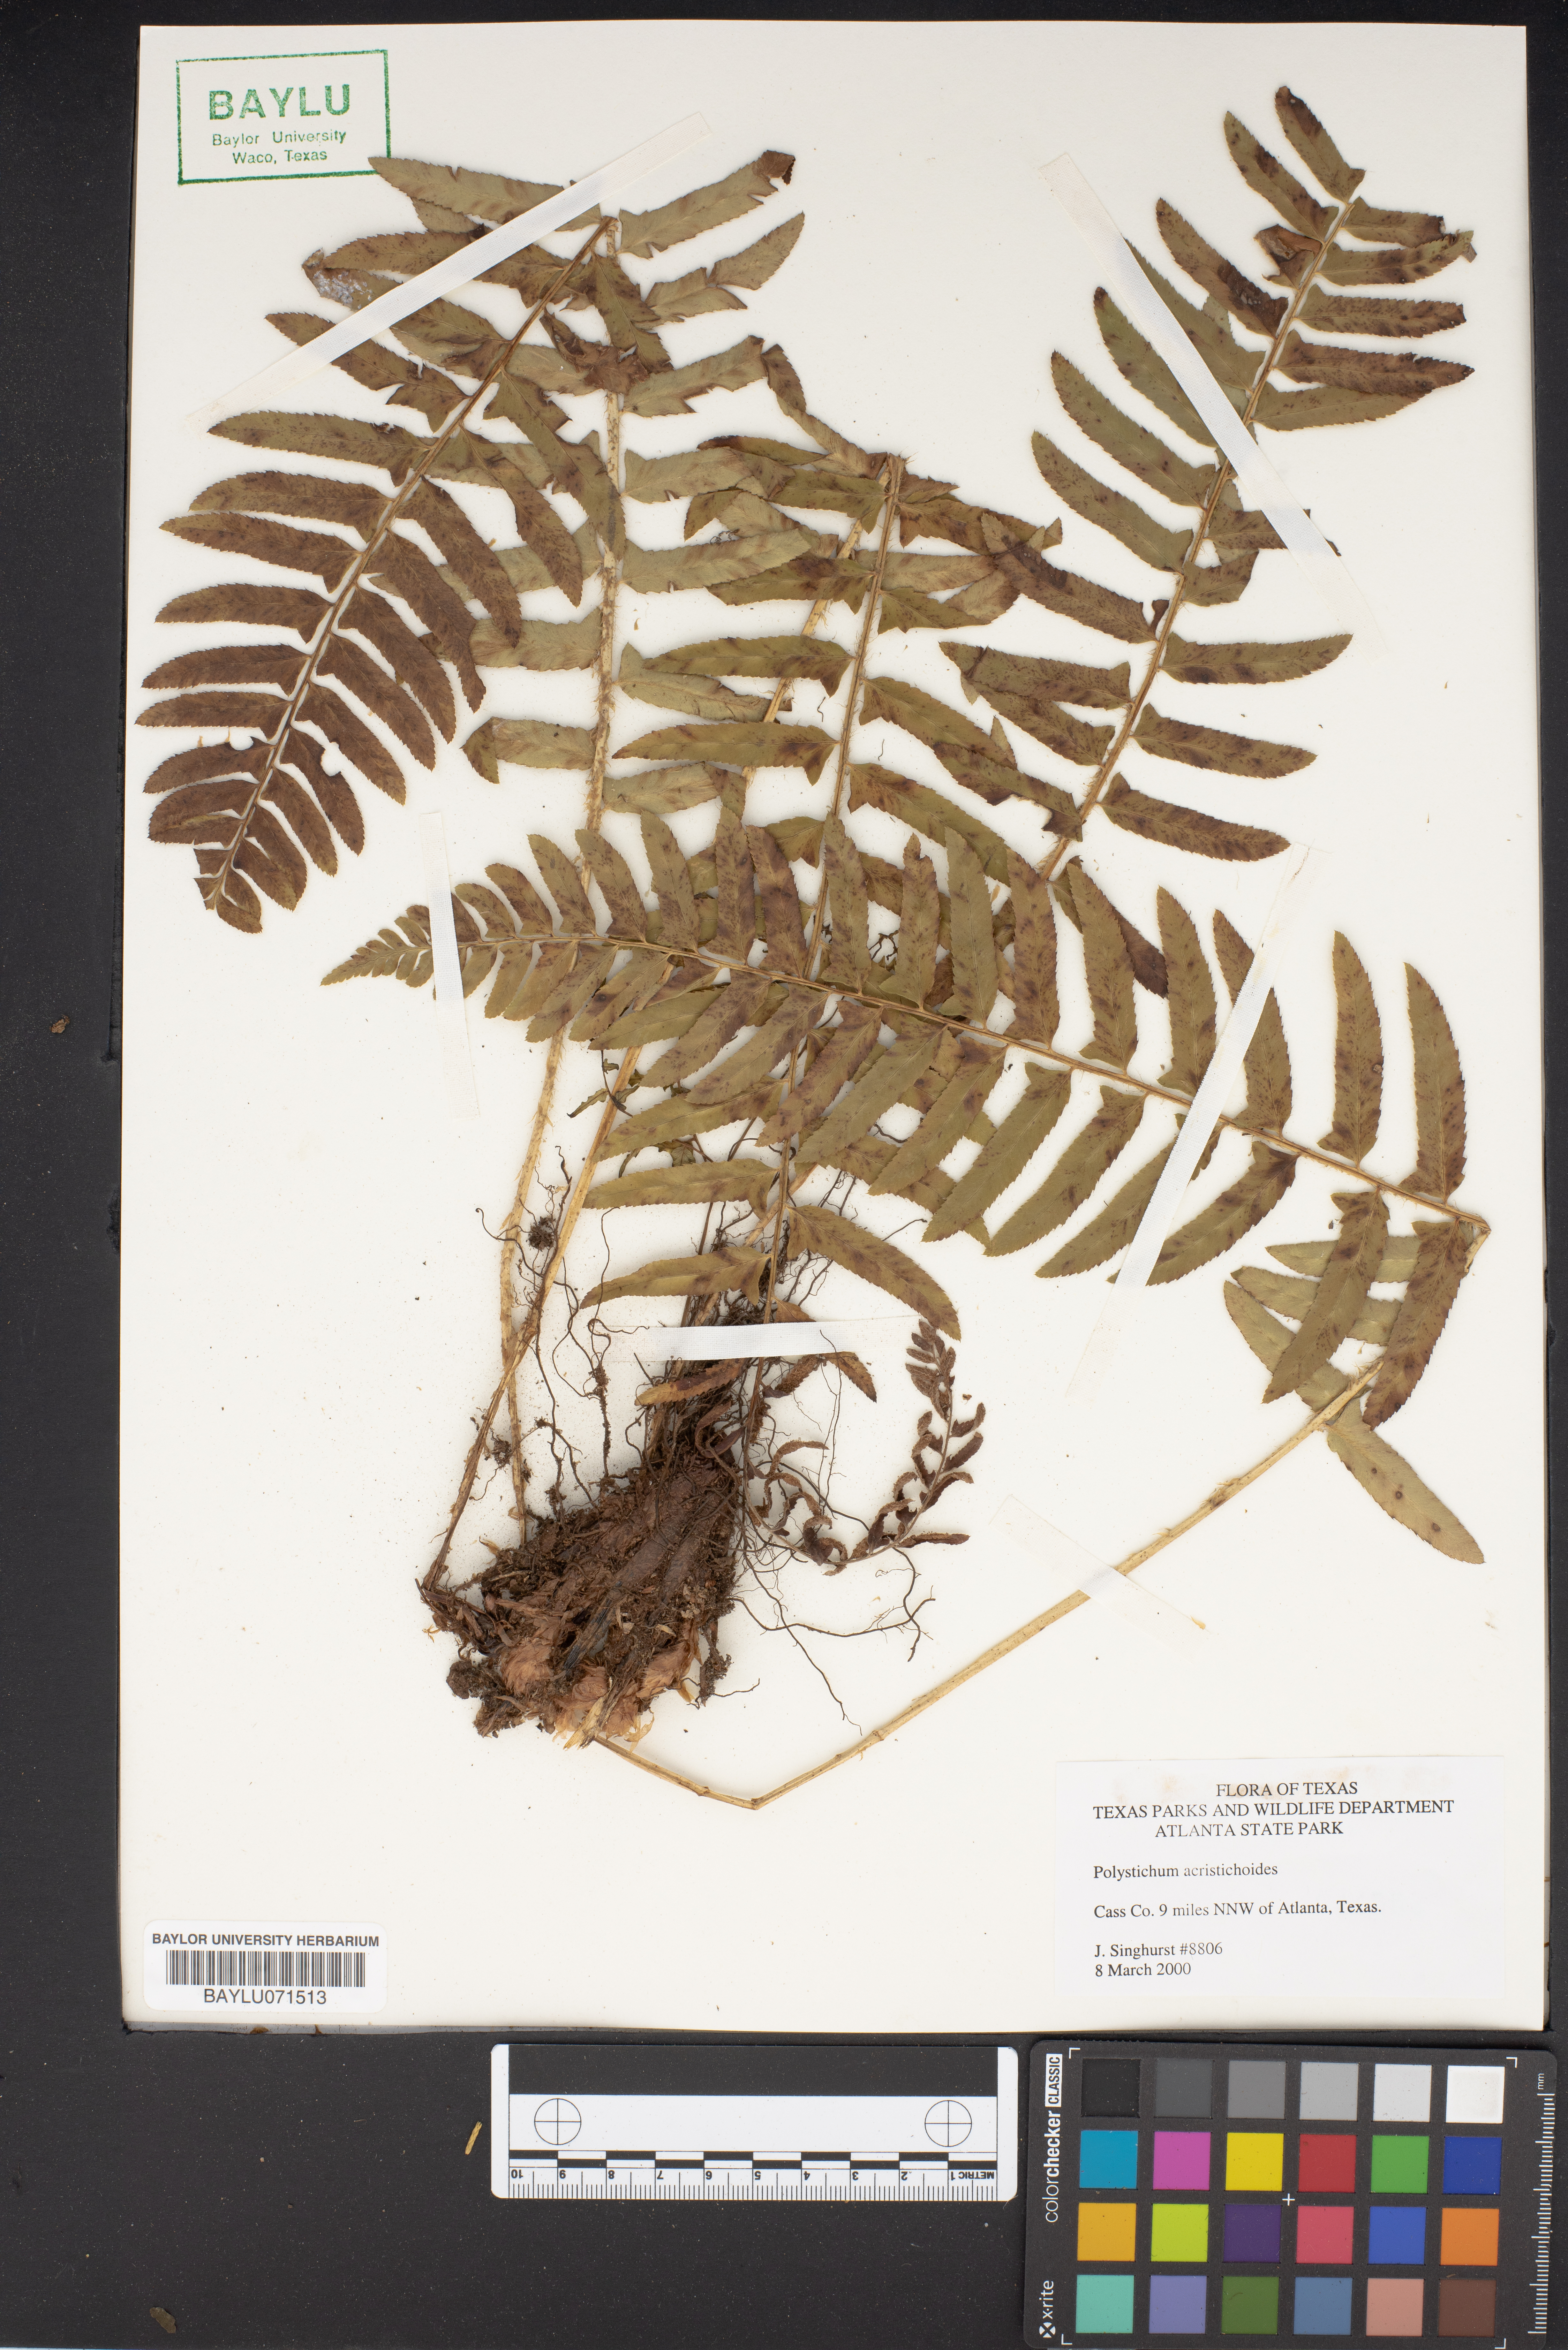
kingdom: Plantae
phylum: Tracheophyta
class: Polypodiopsida
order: Polypodiales
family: Dryopteridaceae
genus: Polystichum
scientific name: Polystichum acrostichoides
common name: Christmas fern
